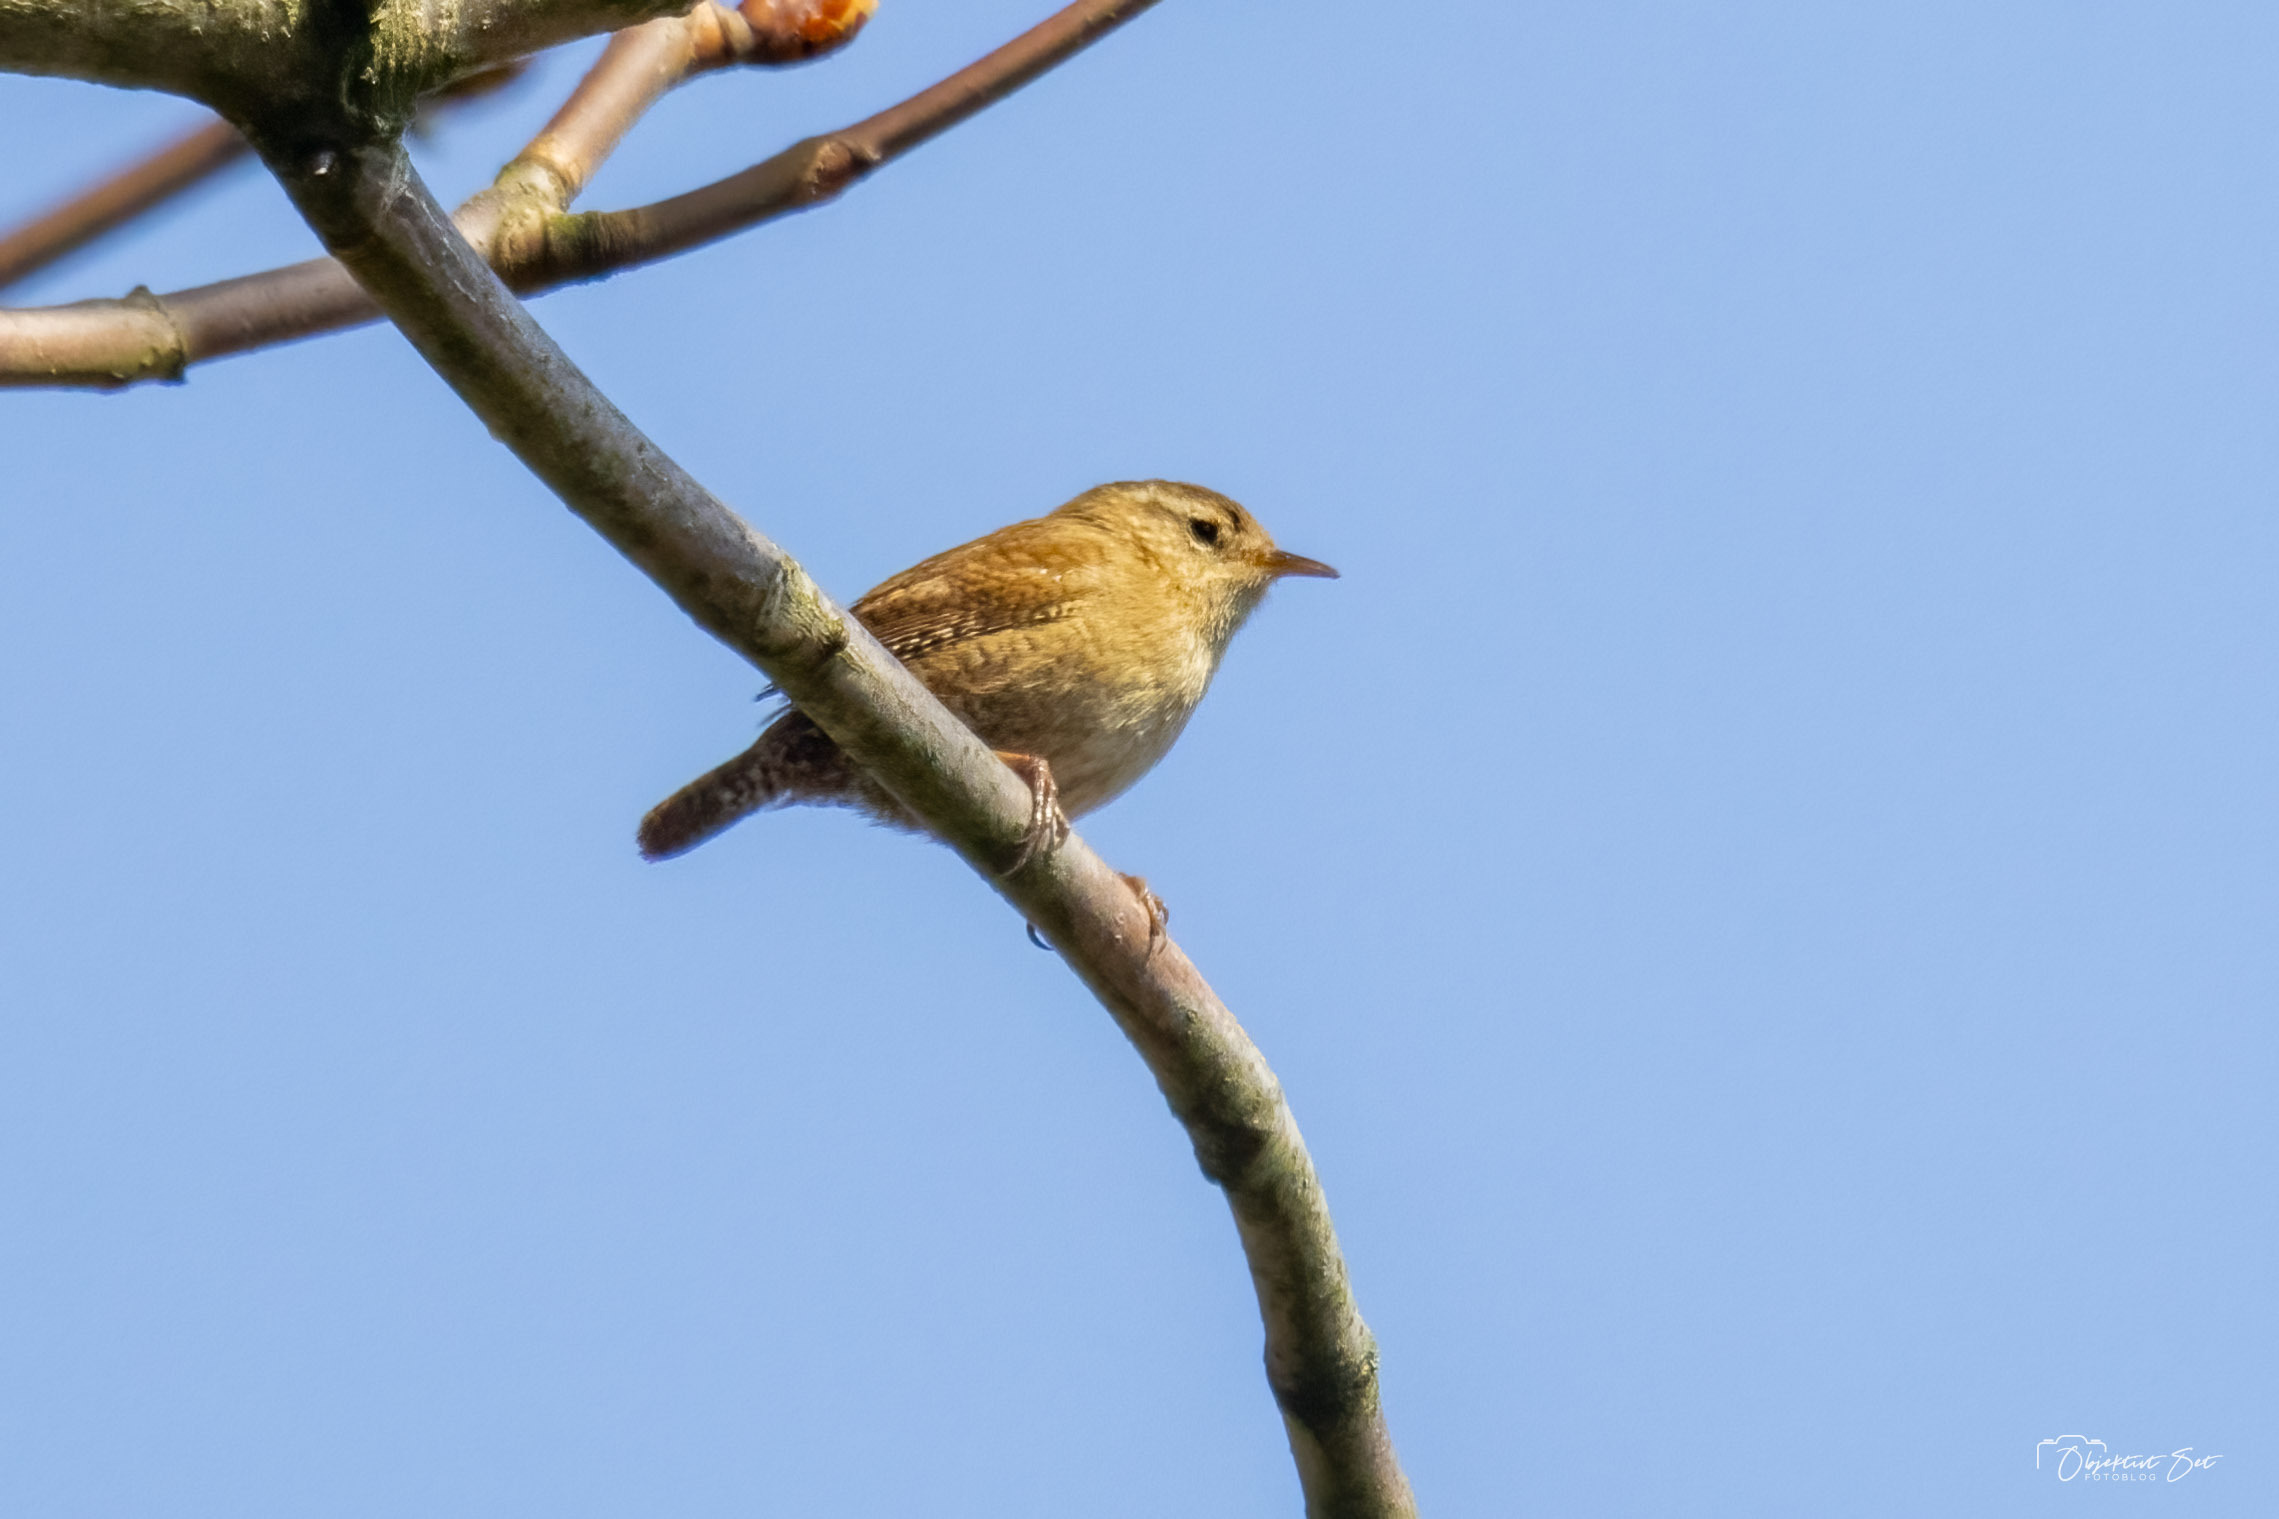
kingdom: Animalia
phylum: Chordata
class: Aves
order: Passeriformes
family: Troglodytidae
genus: Troglodytes
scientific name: Troglodytes troglodytes
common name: Gærdesmutte
